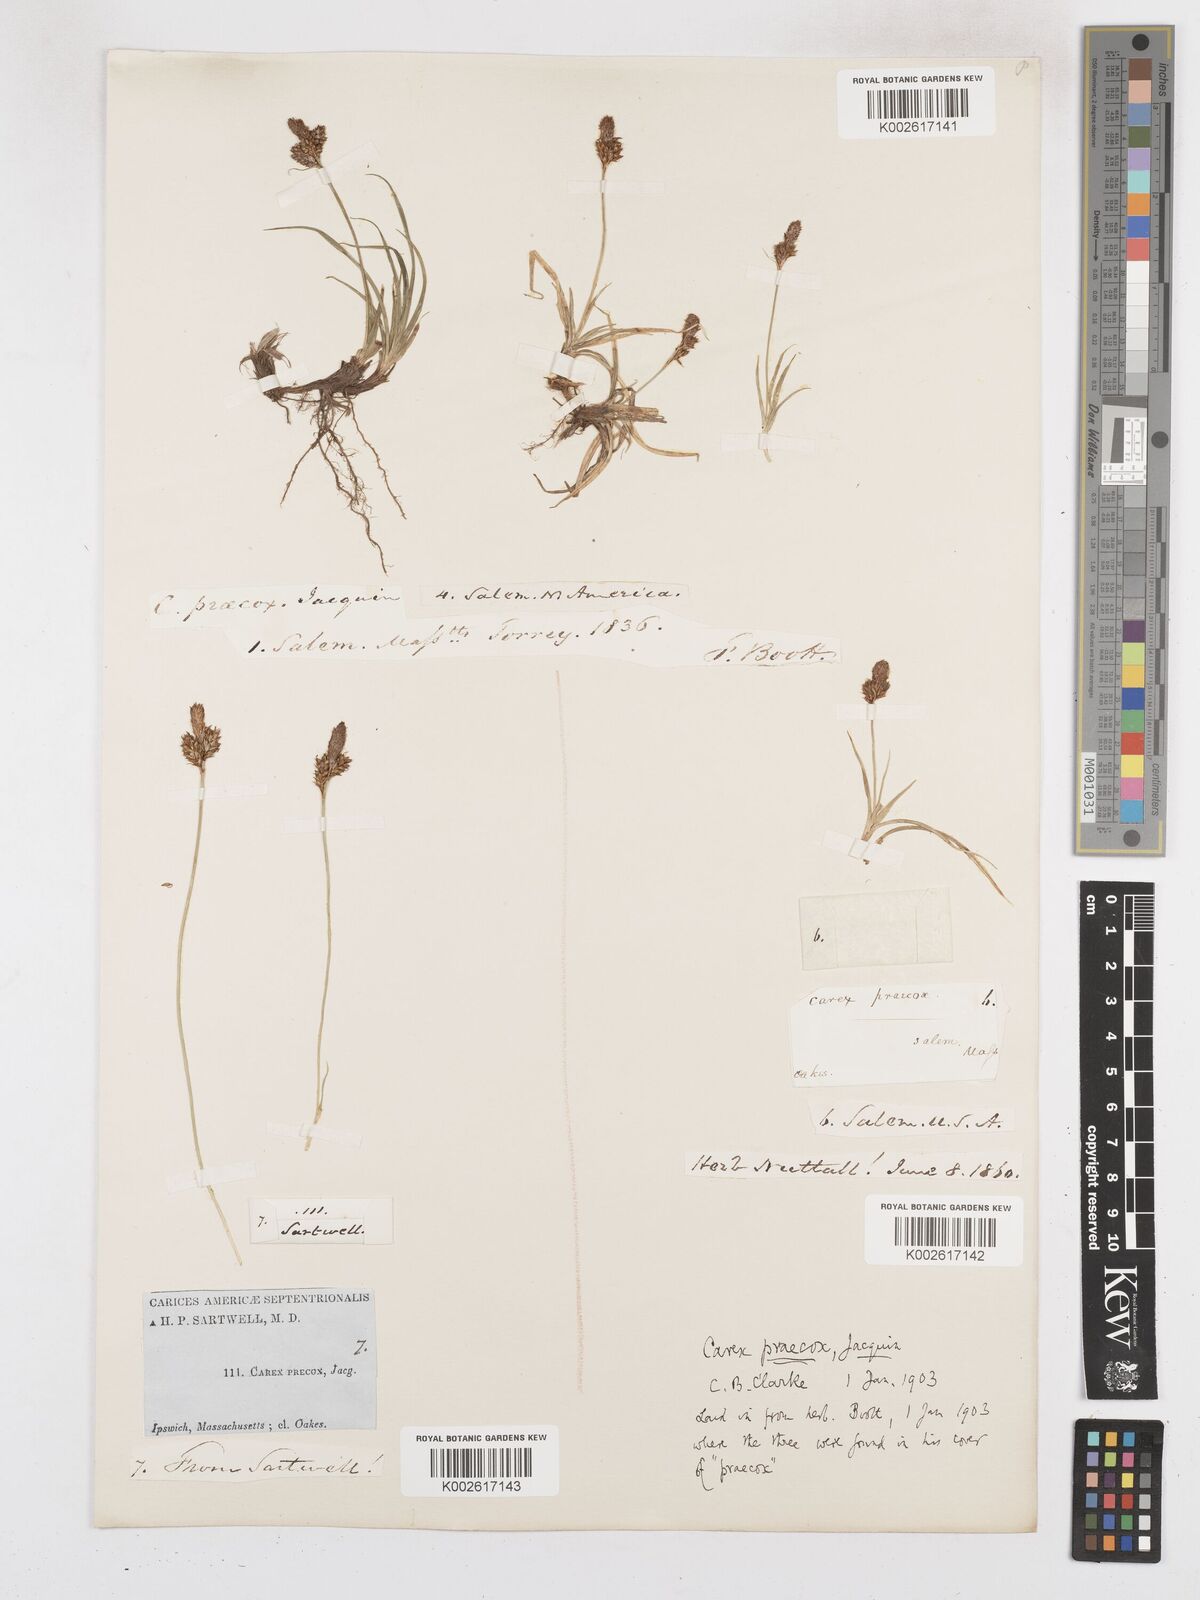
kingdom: Plantae
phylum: Tracheophyta
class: Liliopsida
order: Poales
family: Cyperaceae
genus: Carex
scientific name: Carex caryophyllea
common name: Spring sedge
